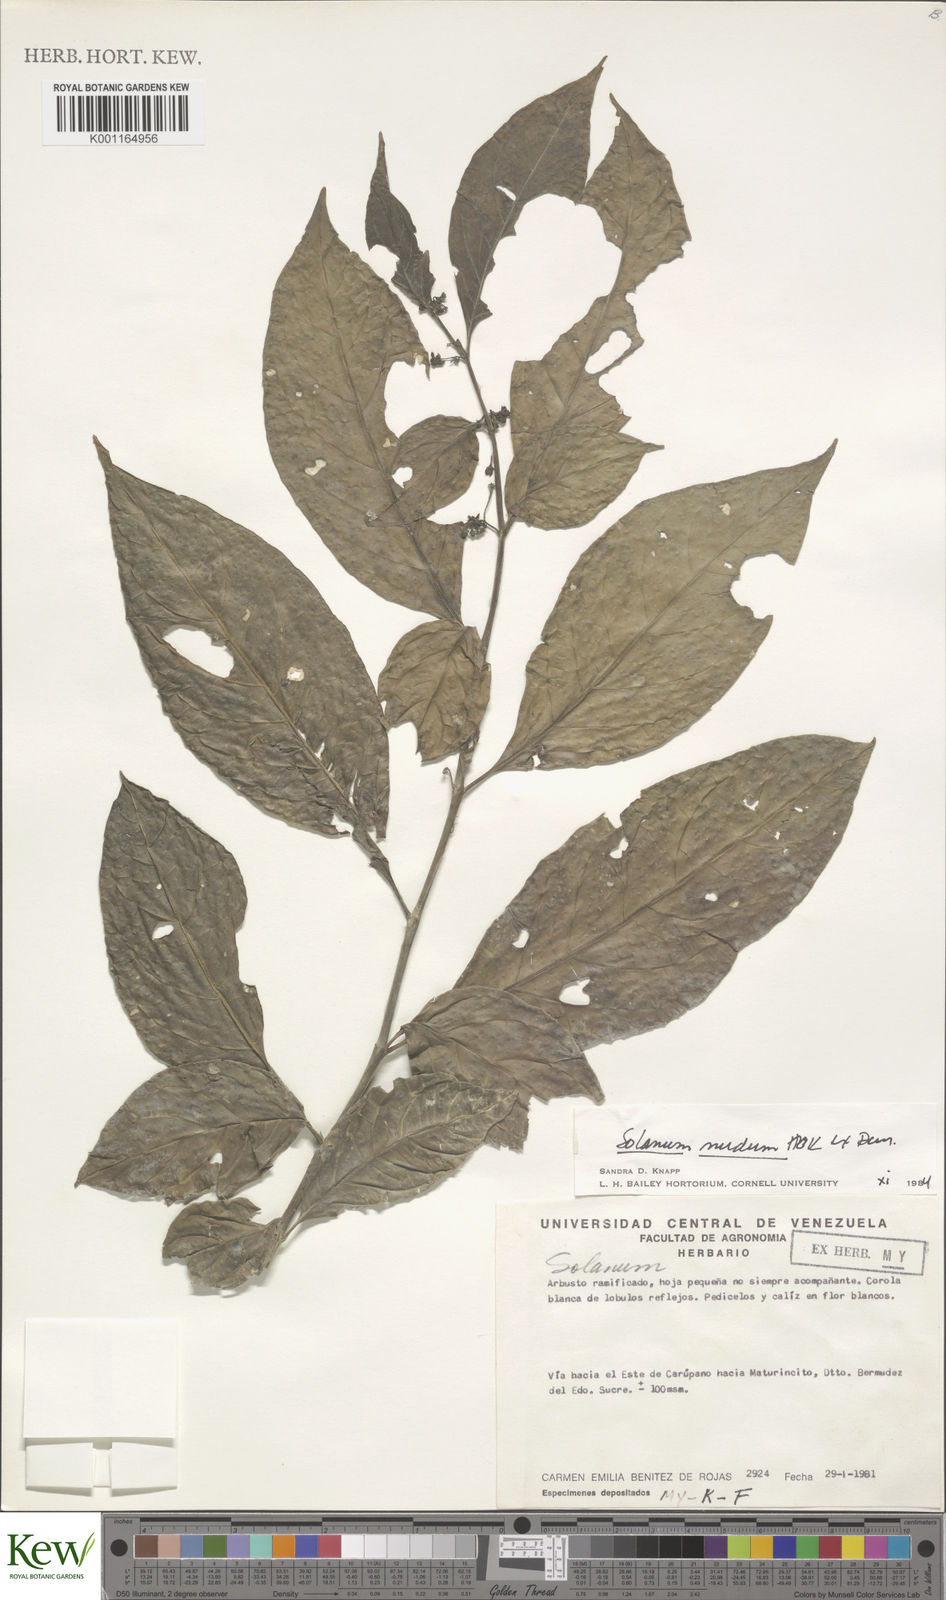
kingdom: Plantae
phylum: Tracheophyta
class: Magnoliopsida
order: Solanales
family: Solanaceae
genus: Solanum
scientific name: Solanum nudum
